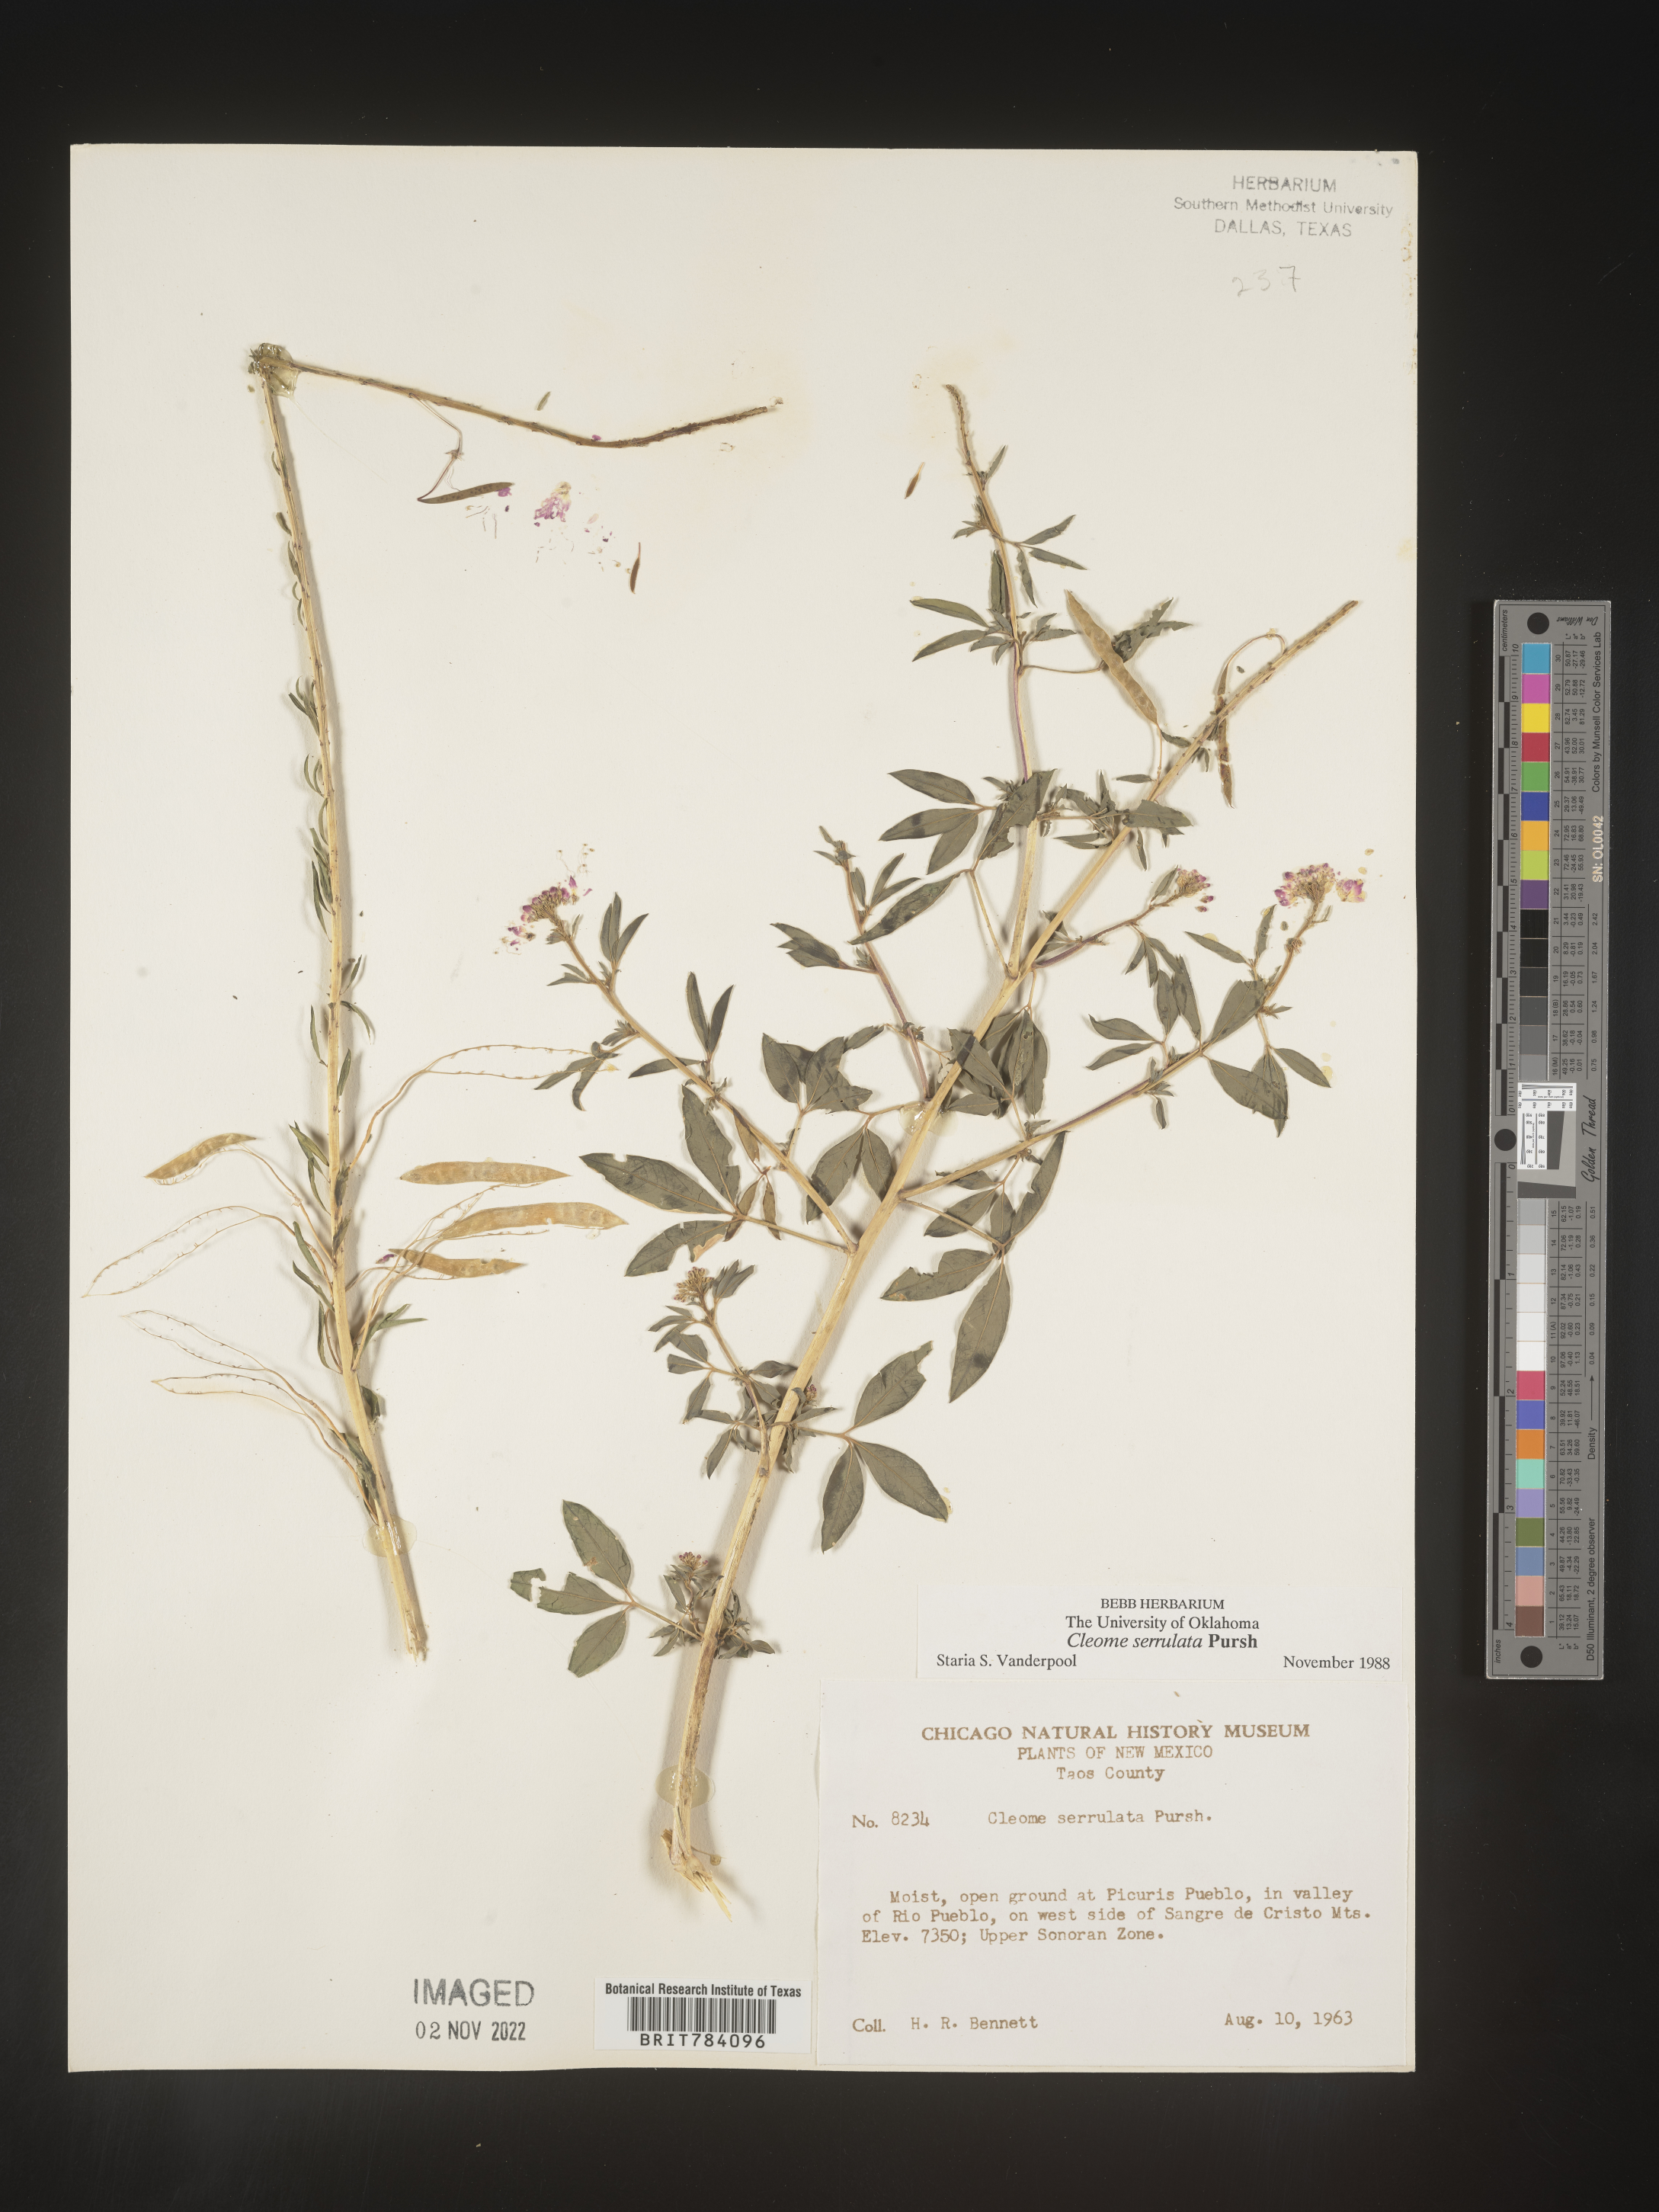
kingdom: Plantae
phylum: Tracheophyta
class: Magnoliopsida
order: Brassicales
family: Cleomaceae
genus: Cleomella
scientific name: Cleomella serrulata
